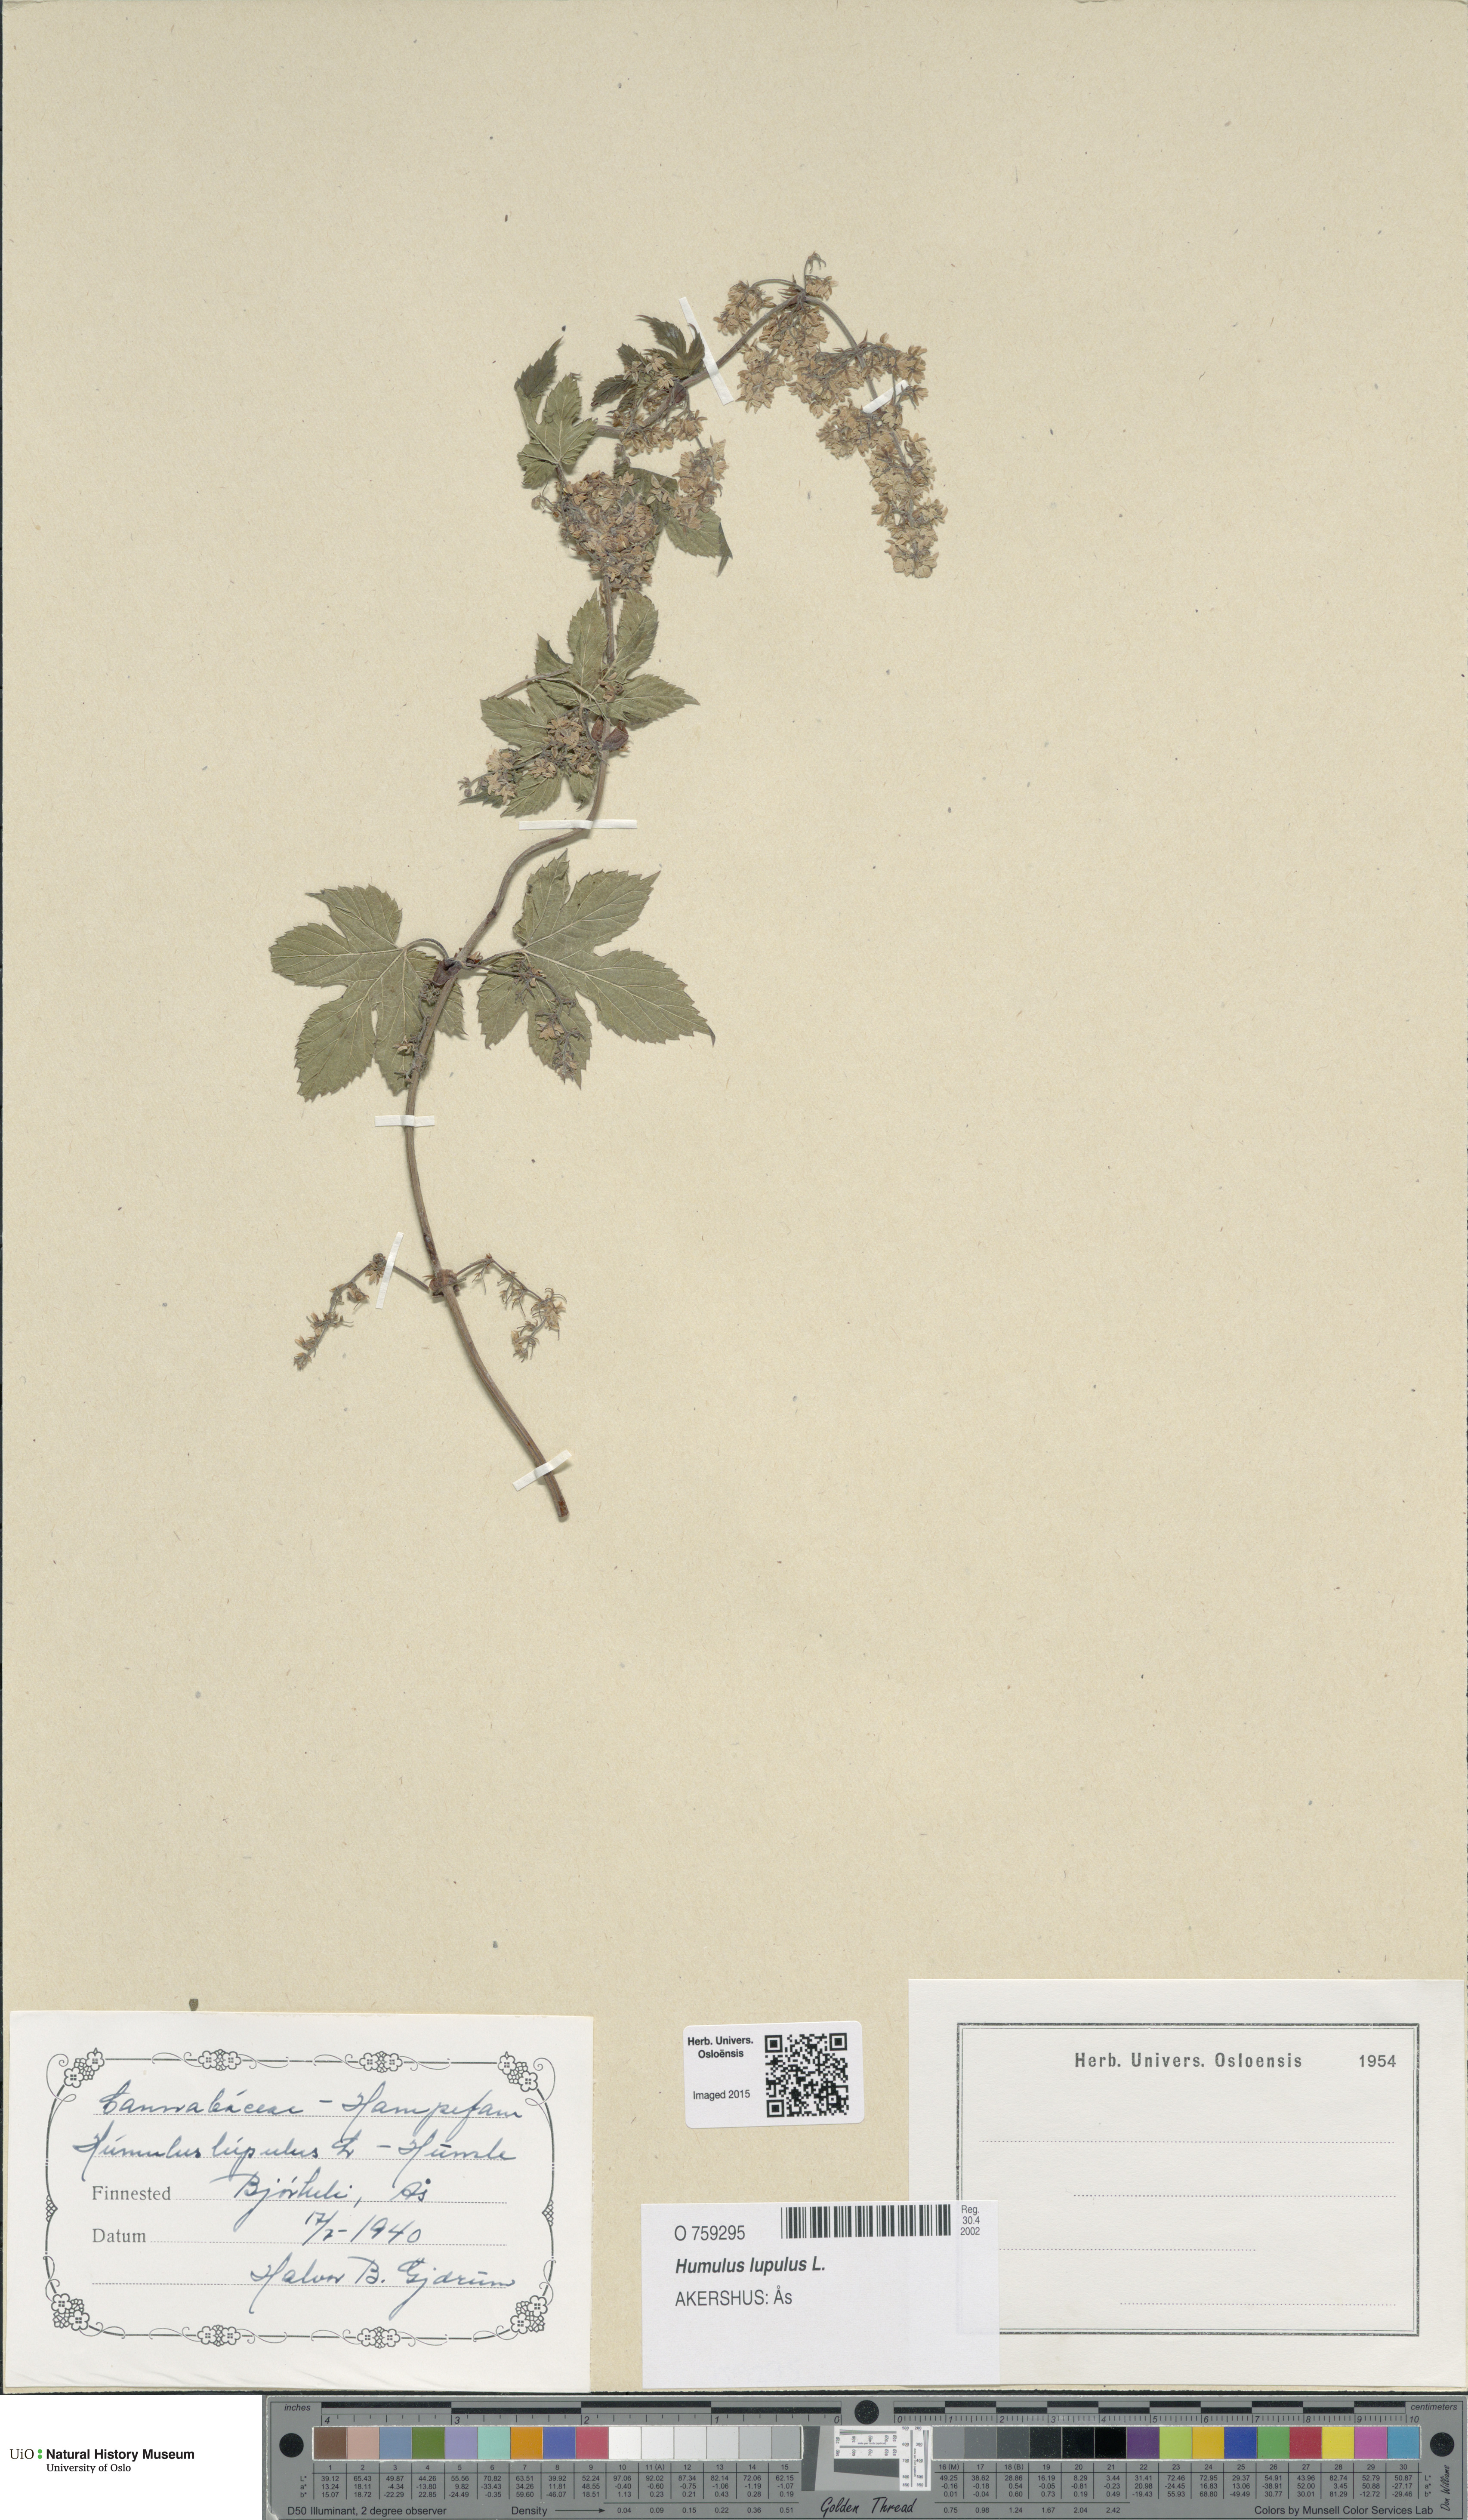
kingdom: Plantae
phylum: Tracheophyta
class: Magnoliopsida
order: Rosales
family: Cannabaceae
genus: Humulus
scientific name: Humulus lupulus
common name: Hop
